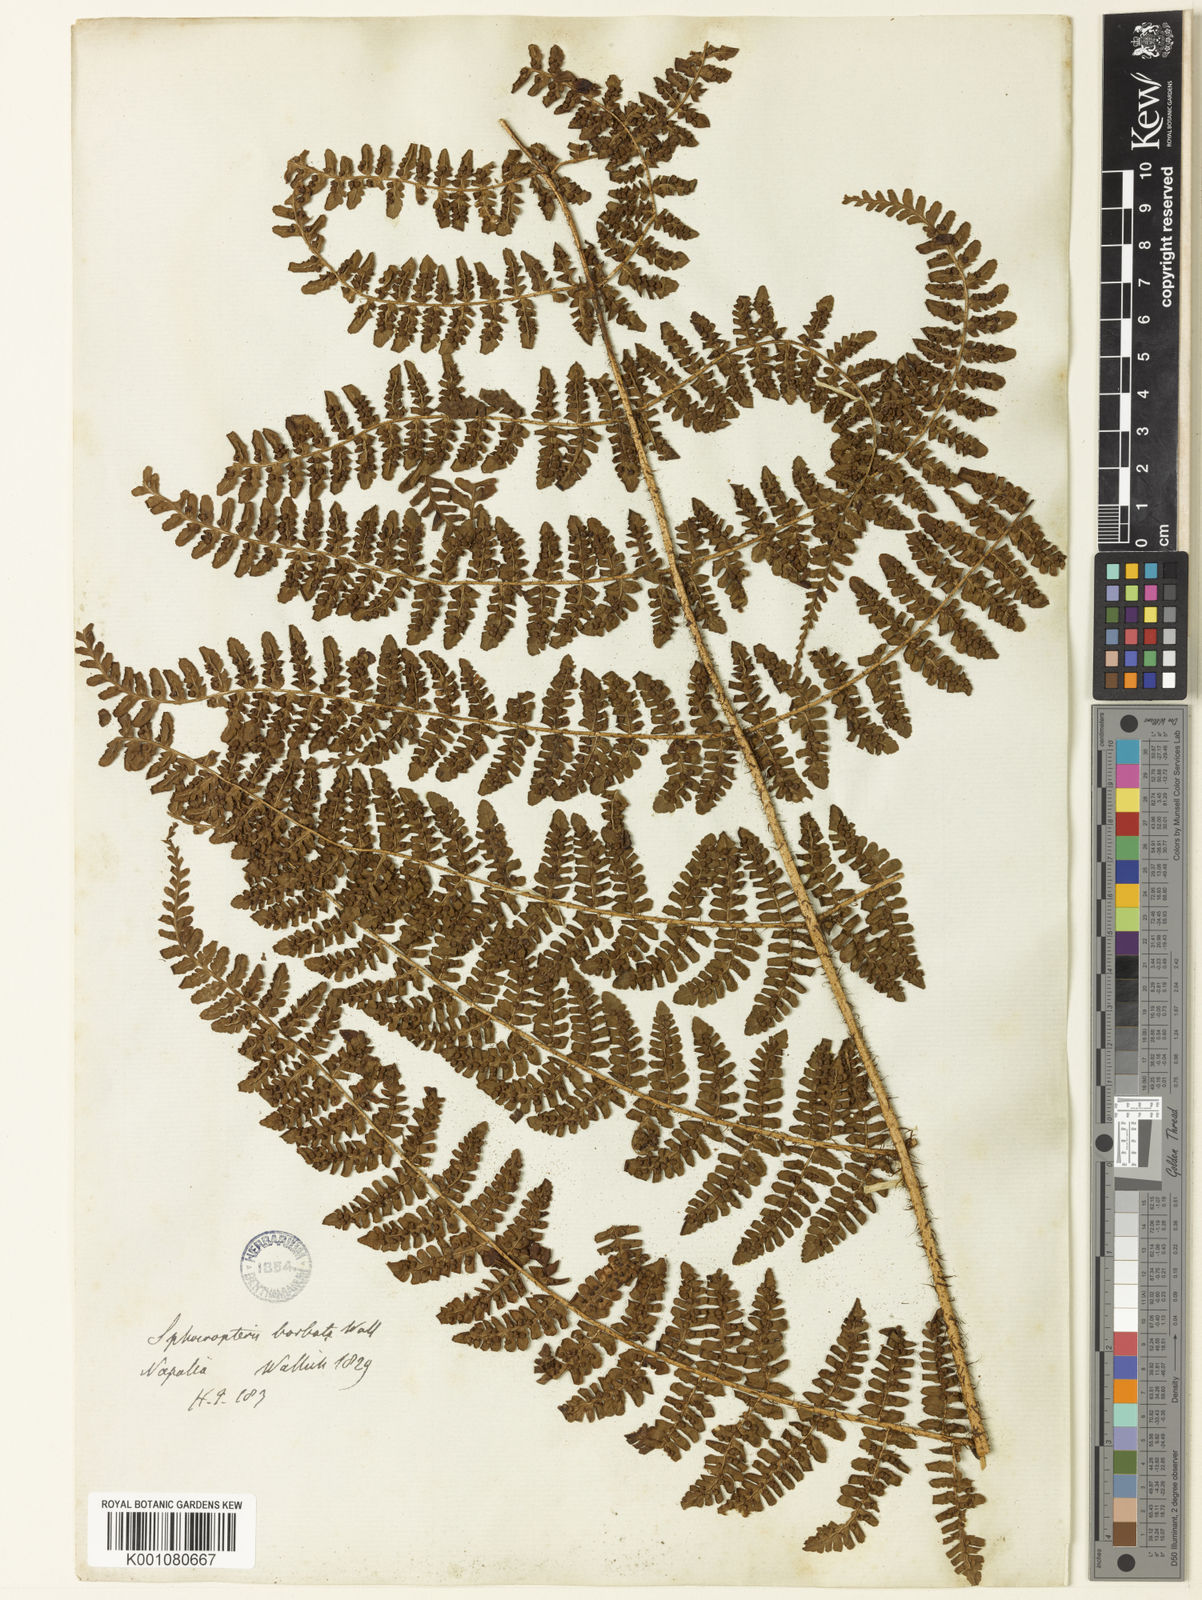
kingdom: Plantae
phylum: Tracheophyta
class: Polypodiopsida
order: Polypodiales
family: Dryopteridaceae
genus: Dryopteris
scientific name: Dryopteris peranema
